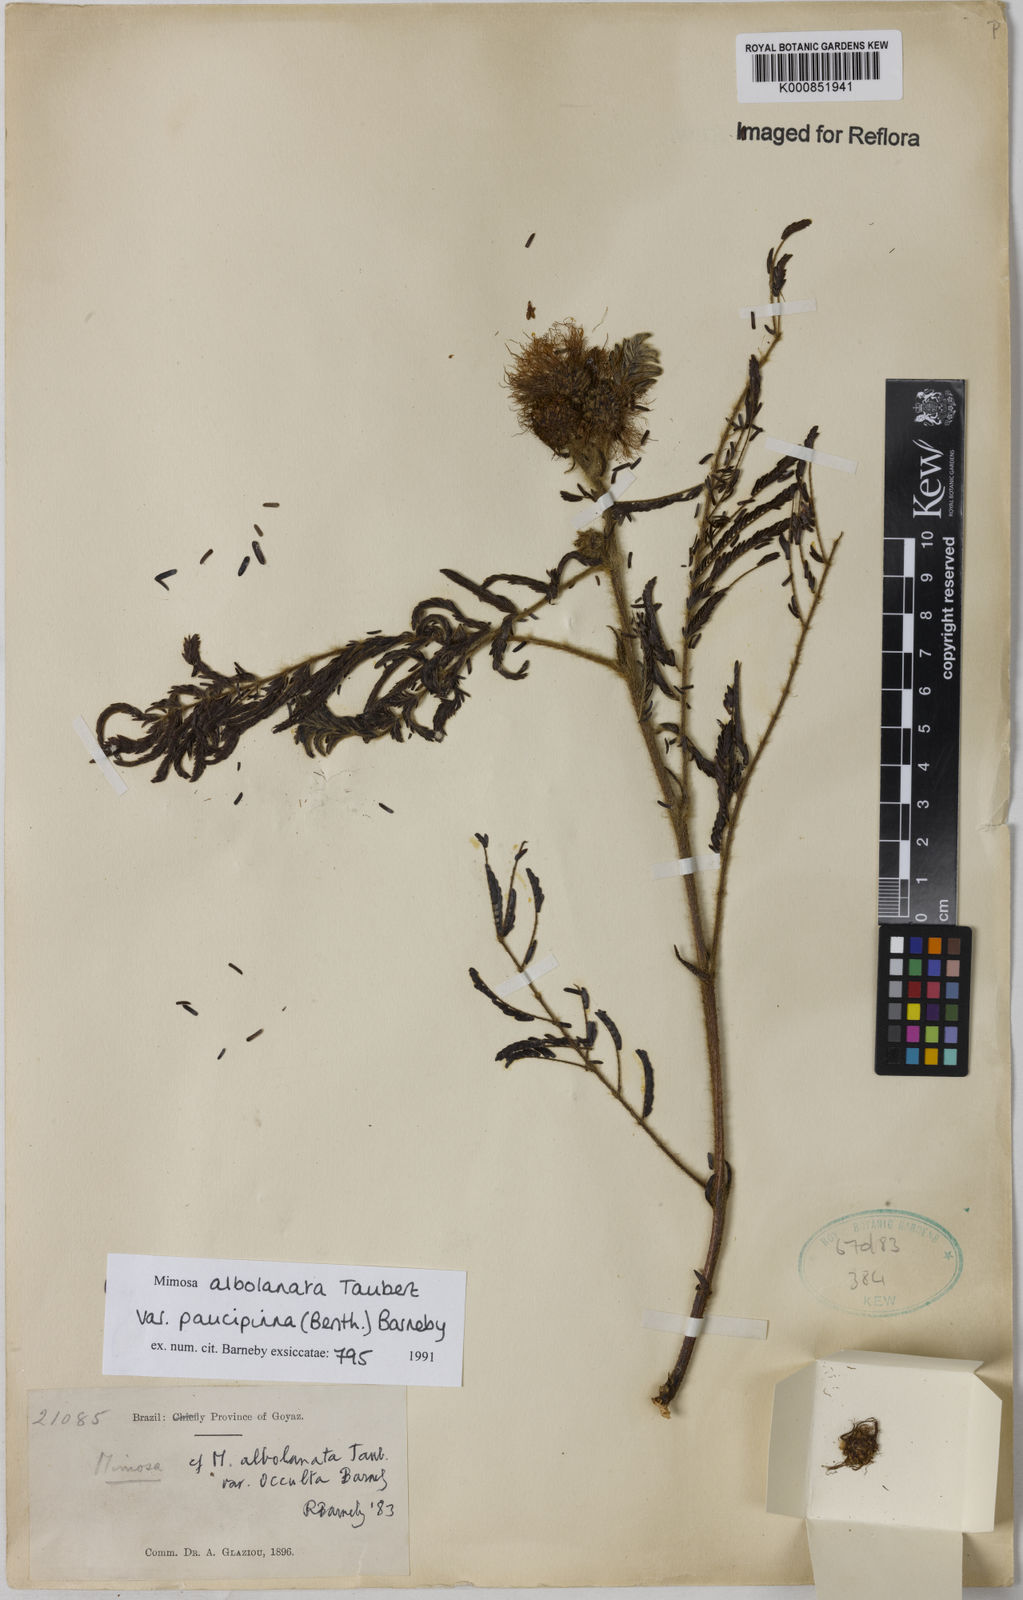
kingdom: Plantae
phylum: Tracheophyta
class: Magnoliopsida
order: Fabales
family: Fabaceae
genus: Mimosa
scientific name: Mimosa albolanata
